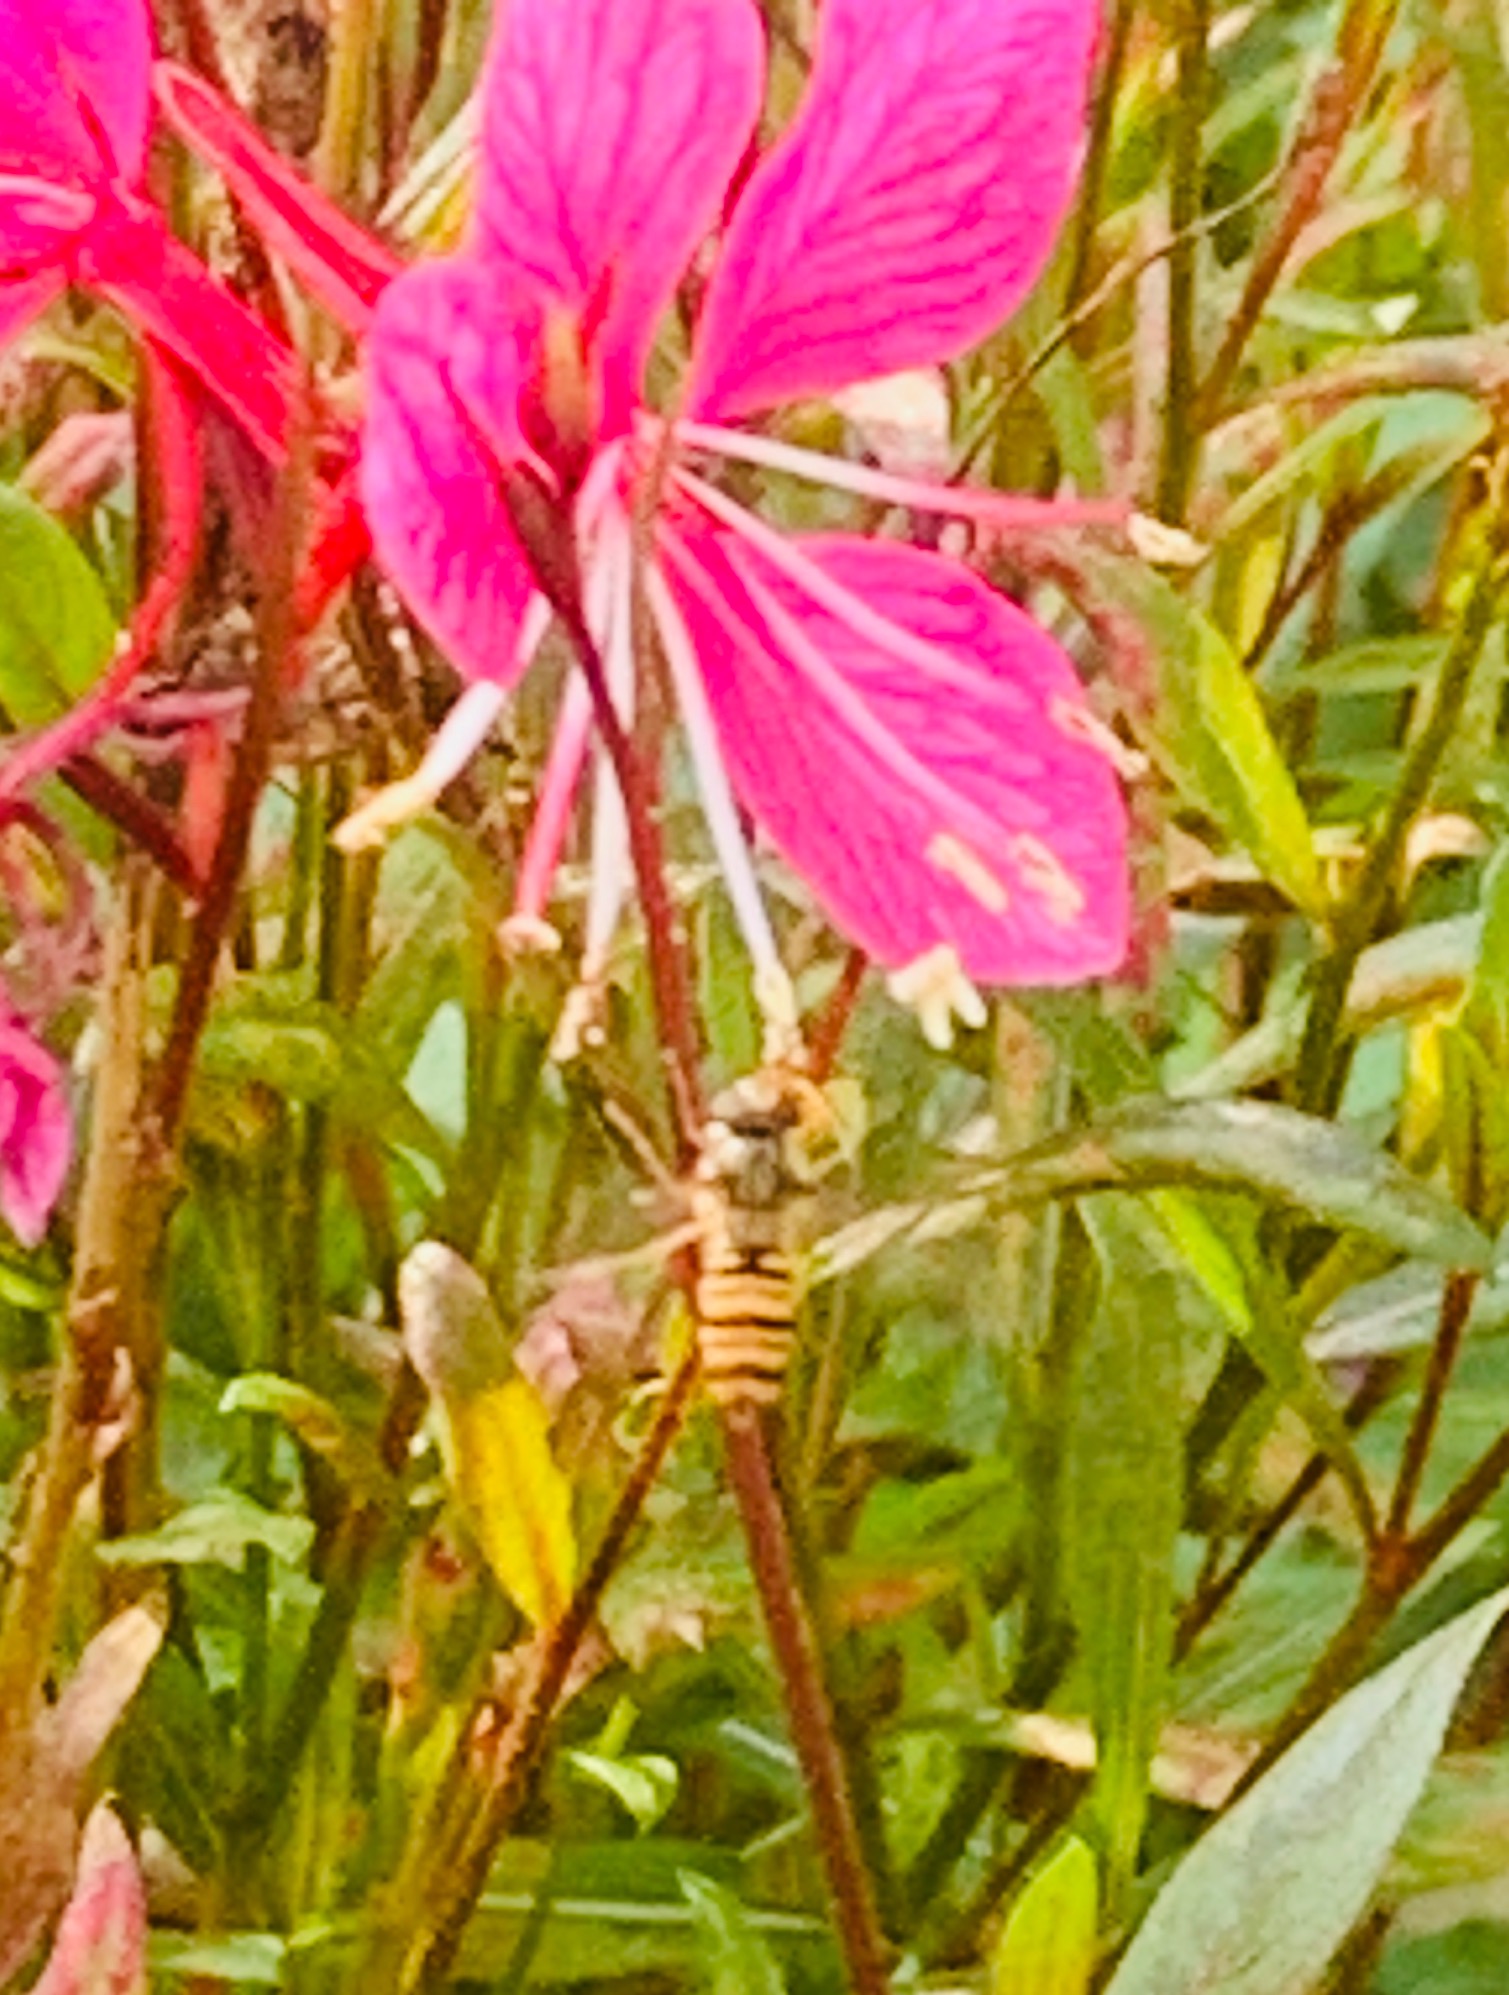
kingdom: Animalia
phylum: Arthropoda
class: Insecta
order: Diptera
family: Syrphidae
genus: Episyrphus
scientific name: Episyrphus balteatus
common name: Dobbeltbåndet svirreflue
